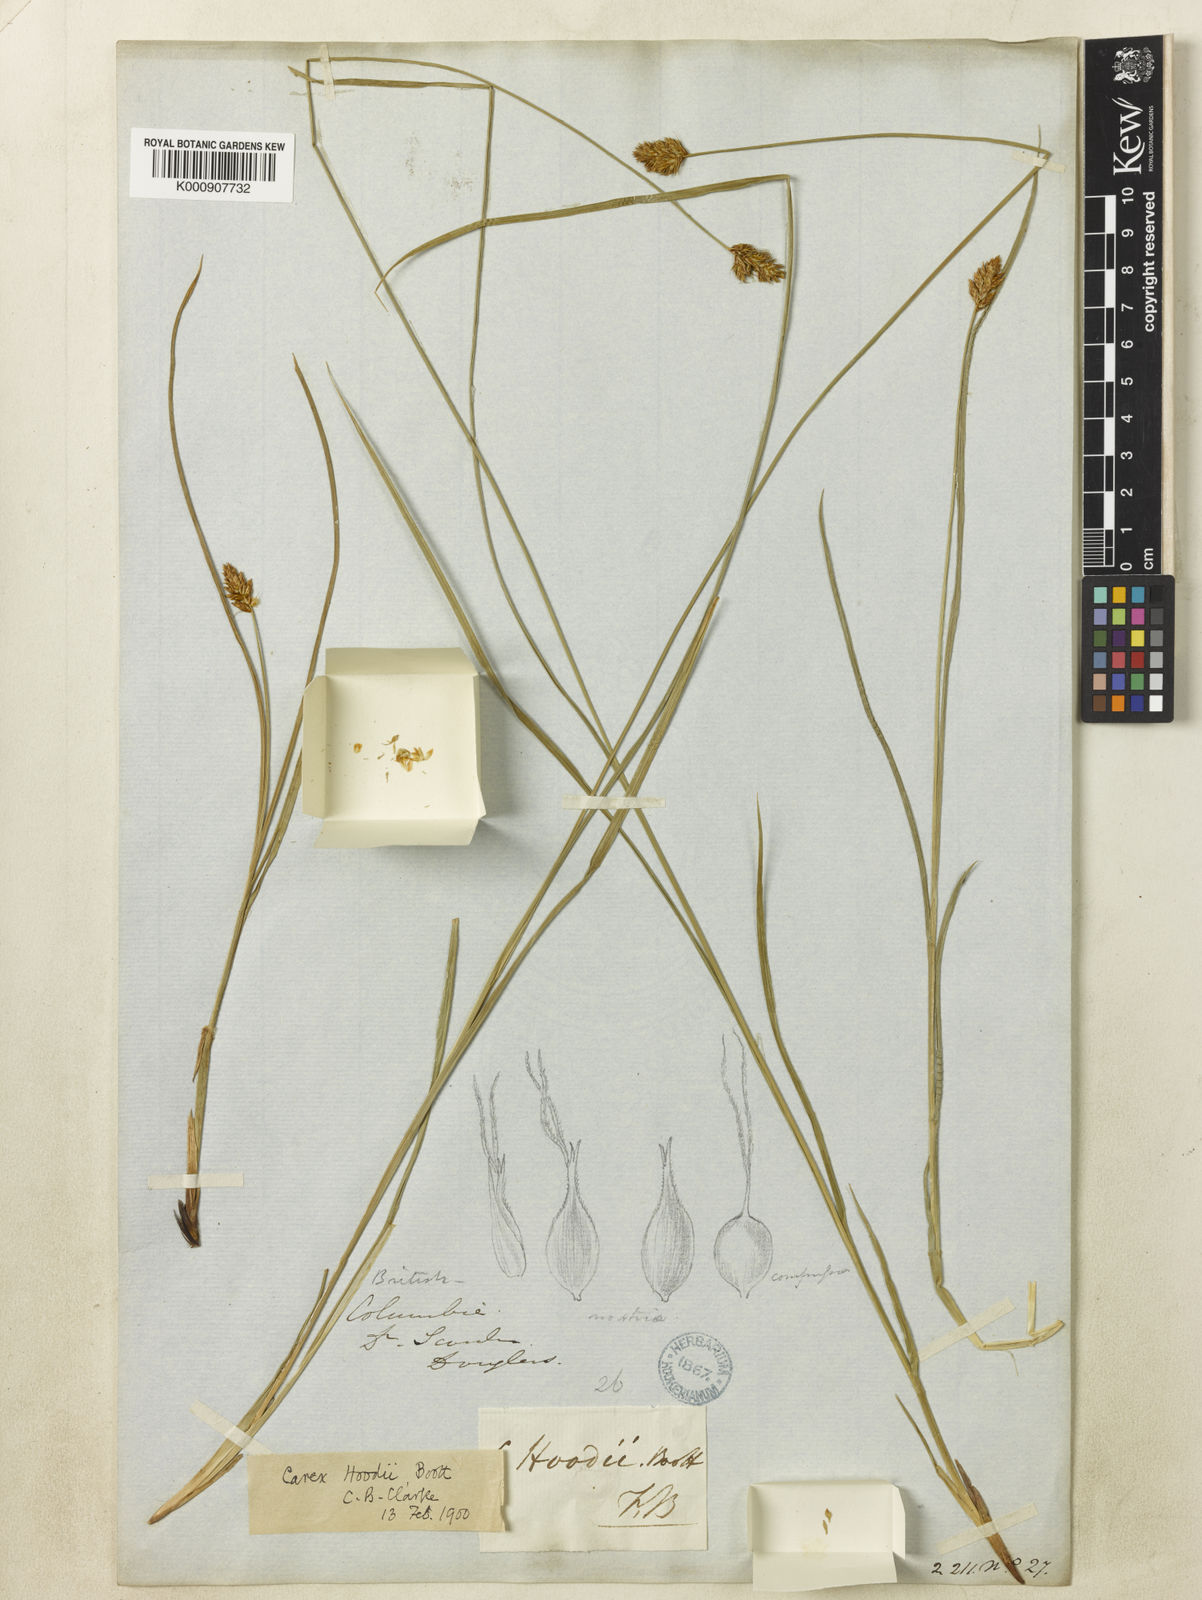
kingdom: Plantae
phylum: Tracheophyta
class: Liliopsida
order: Poales
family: Cyperaceae
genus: Carex
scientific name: Carex hoodii
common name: Hood's sedge
